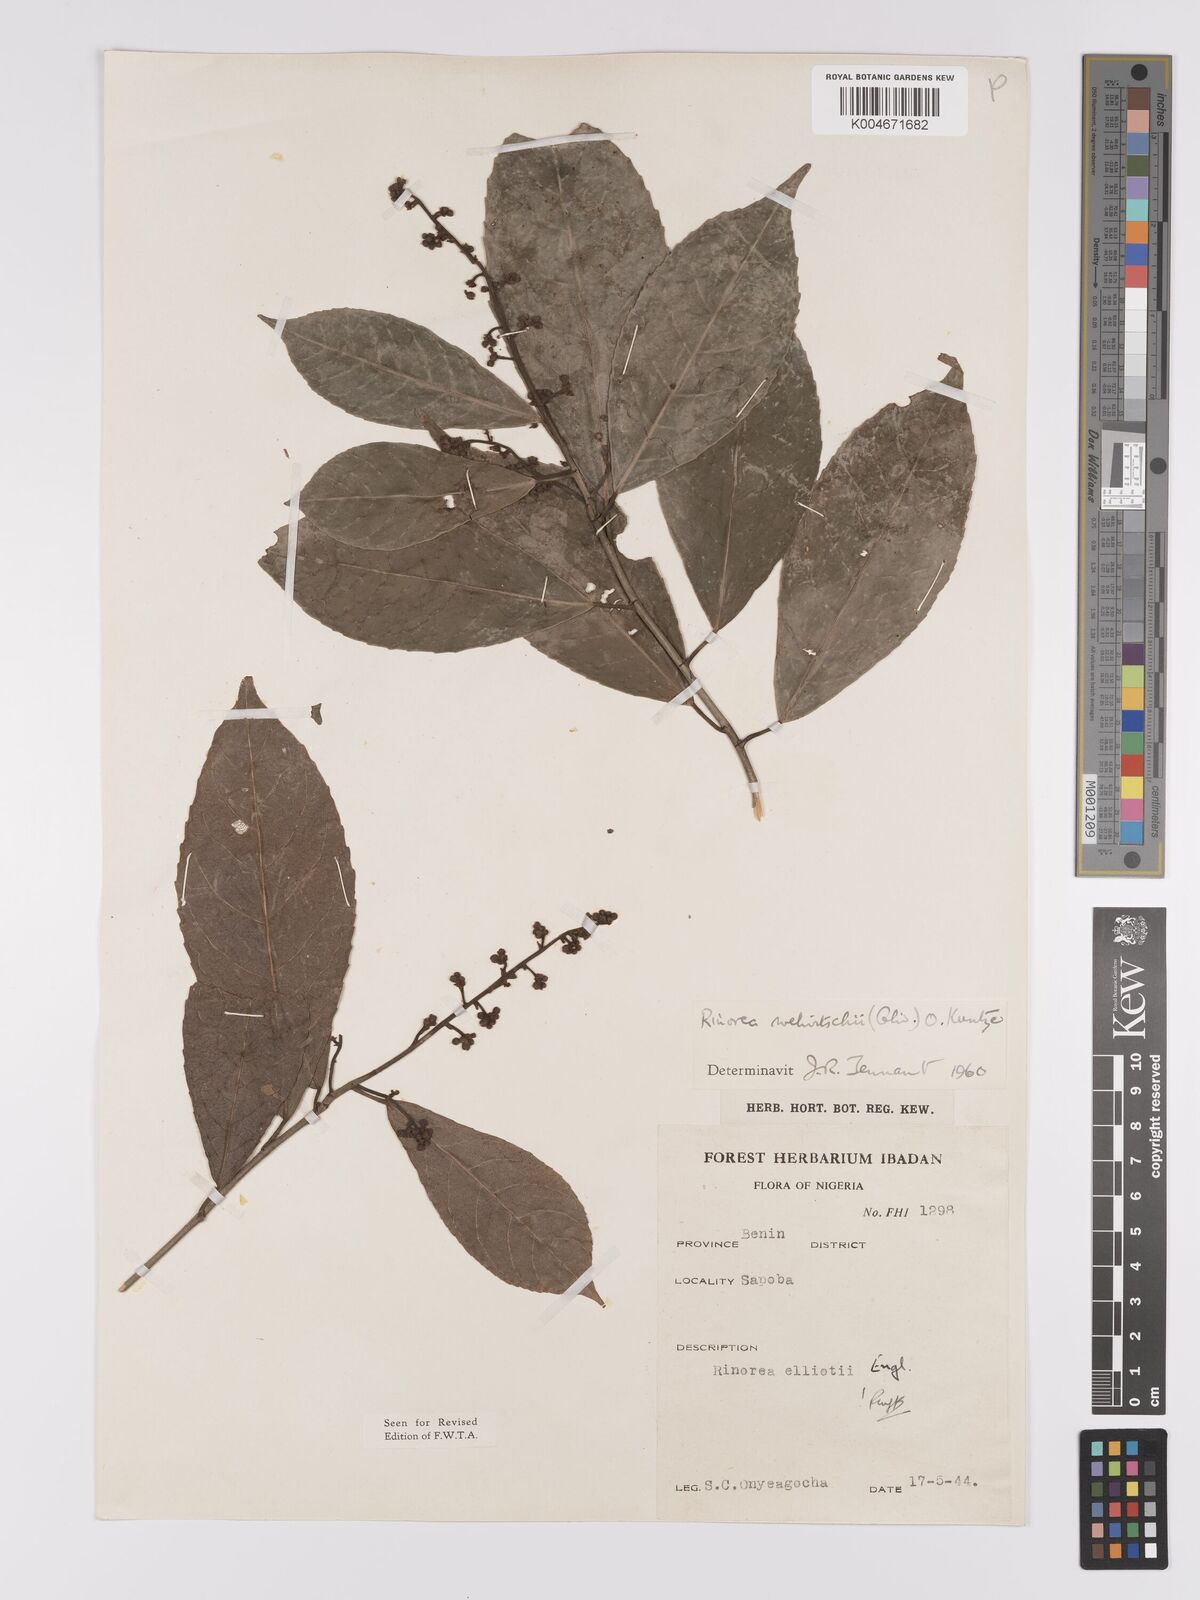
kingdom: Plantae
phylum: Tracheophyta
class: Magnoliopsida
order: Malpighiales
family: Violaceae
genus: Rinorea
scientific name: Rinorea welwitschii
